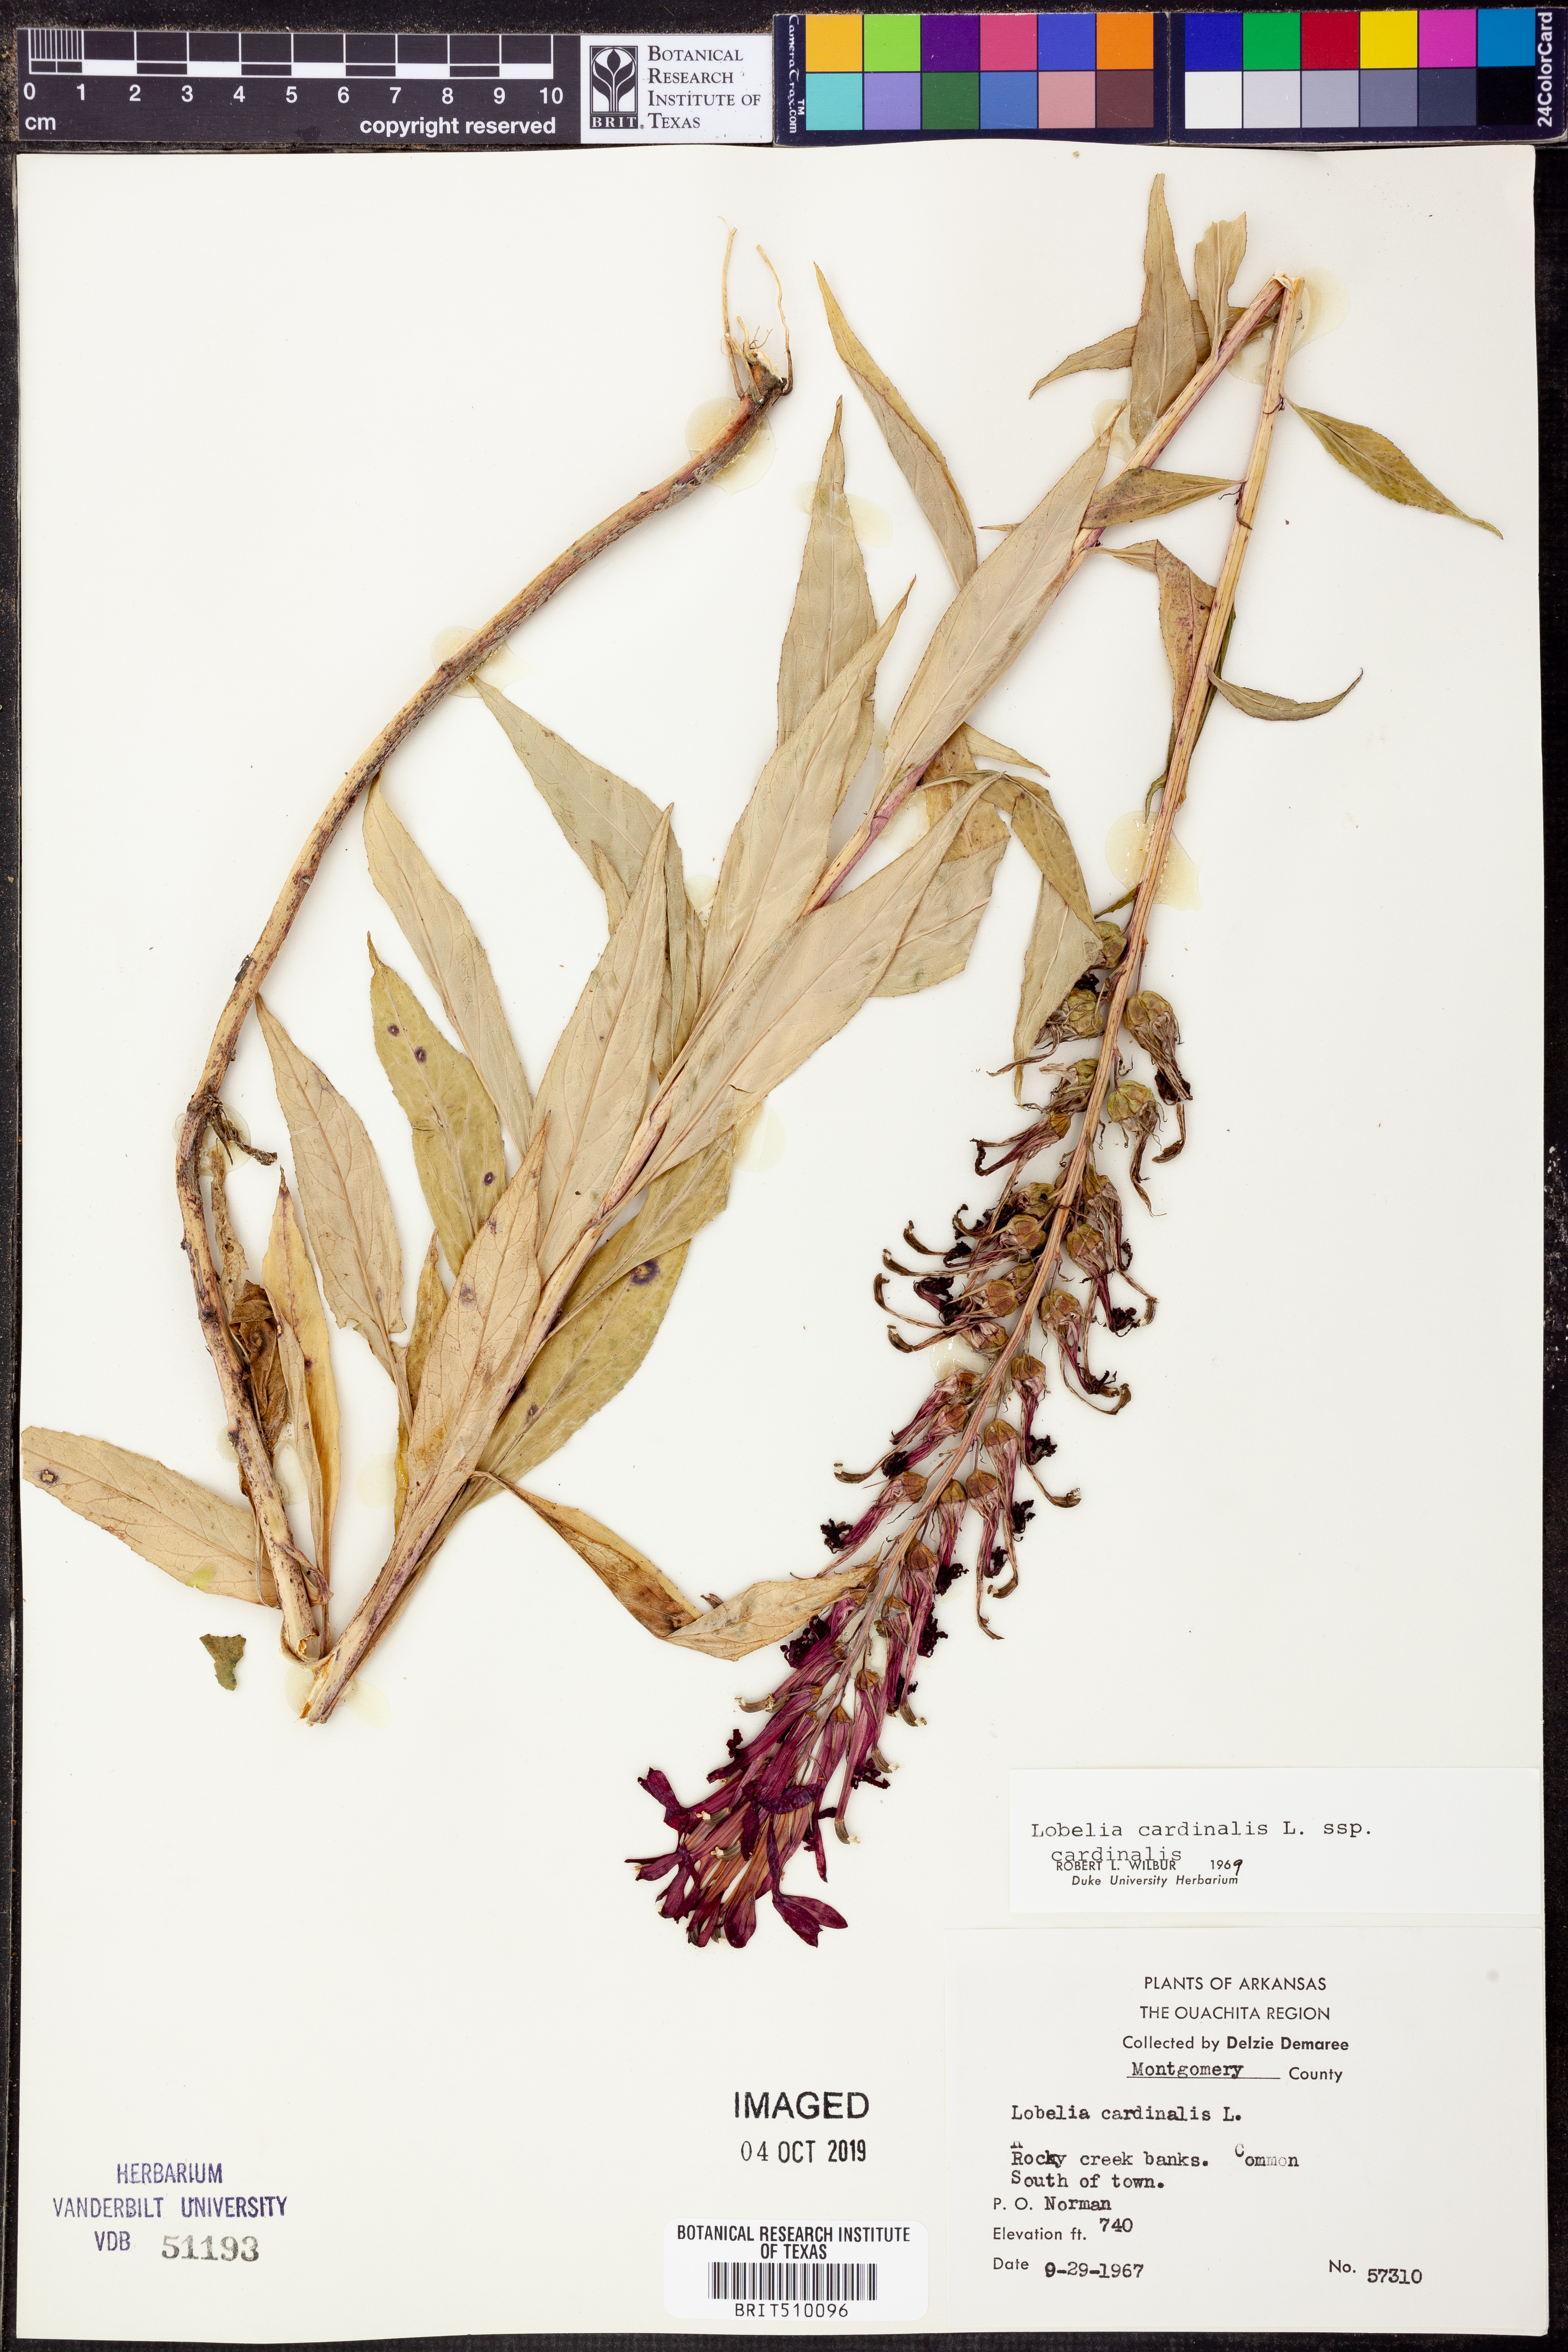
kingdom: Plantae
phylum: Tracheophyta
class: Magnoliopsida
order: Asterales
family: Campanulaceae
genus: Lobelia
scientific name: Lobelia cardinalis
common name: Cardinal flower
